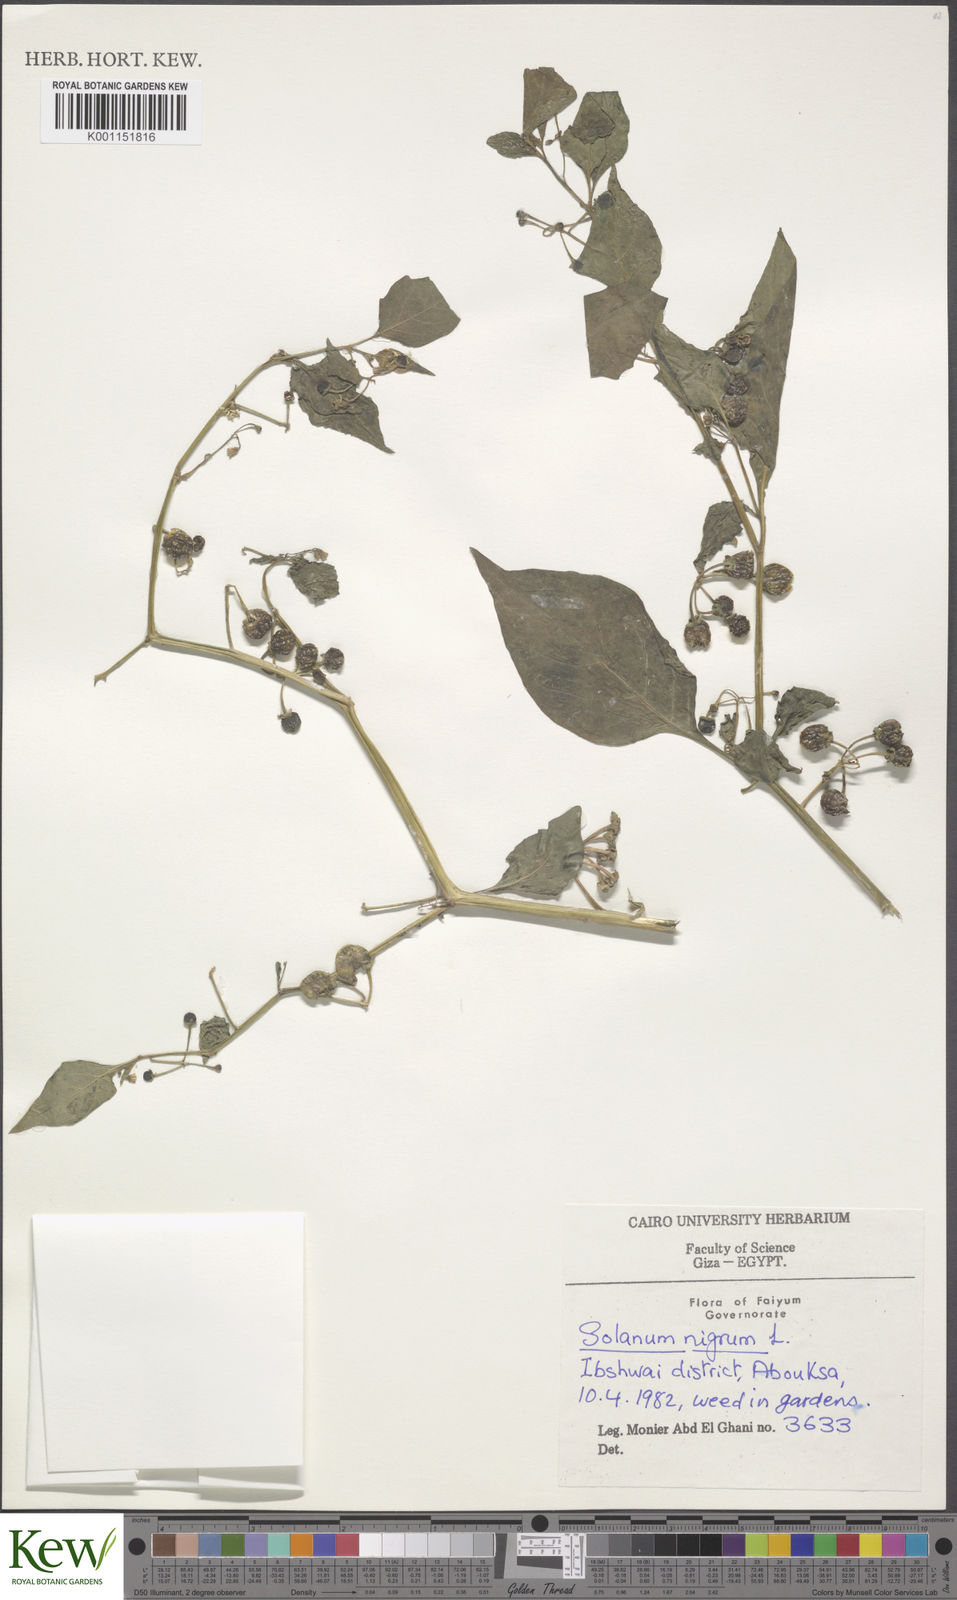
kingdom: Plantae
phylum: Tracheophyta
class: Magnoliopsida
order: Solanales
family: Solanaceae
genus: Solanum
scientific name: Solanum nigrum
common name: Black nightshade
